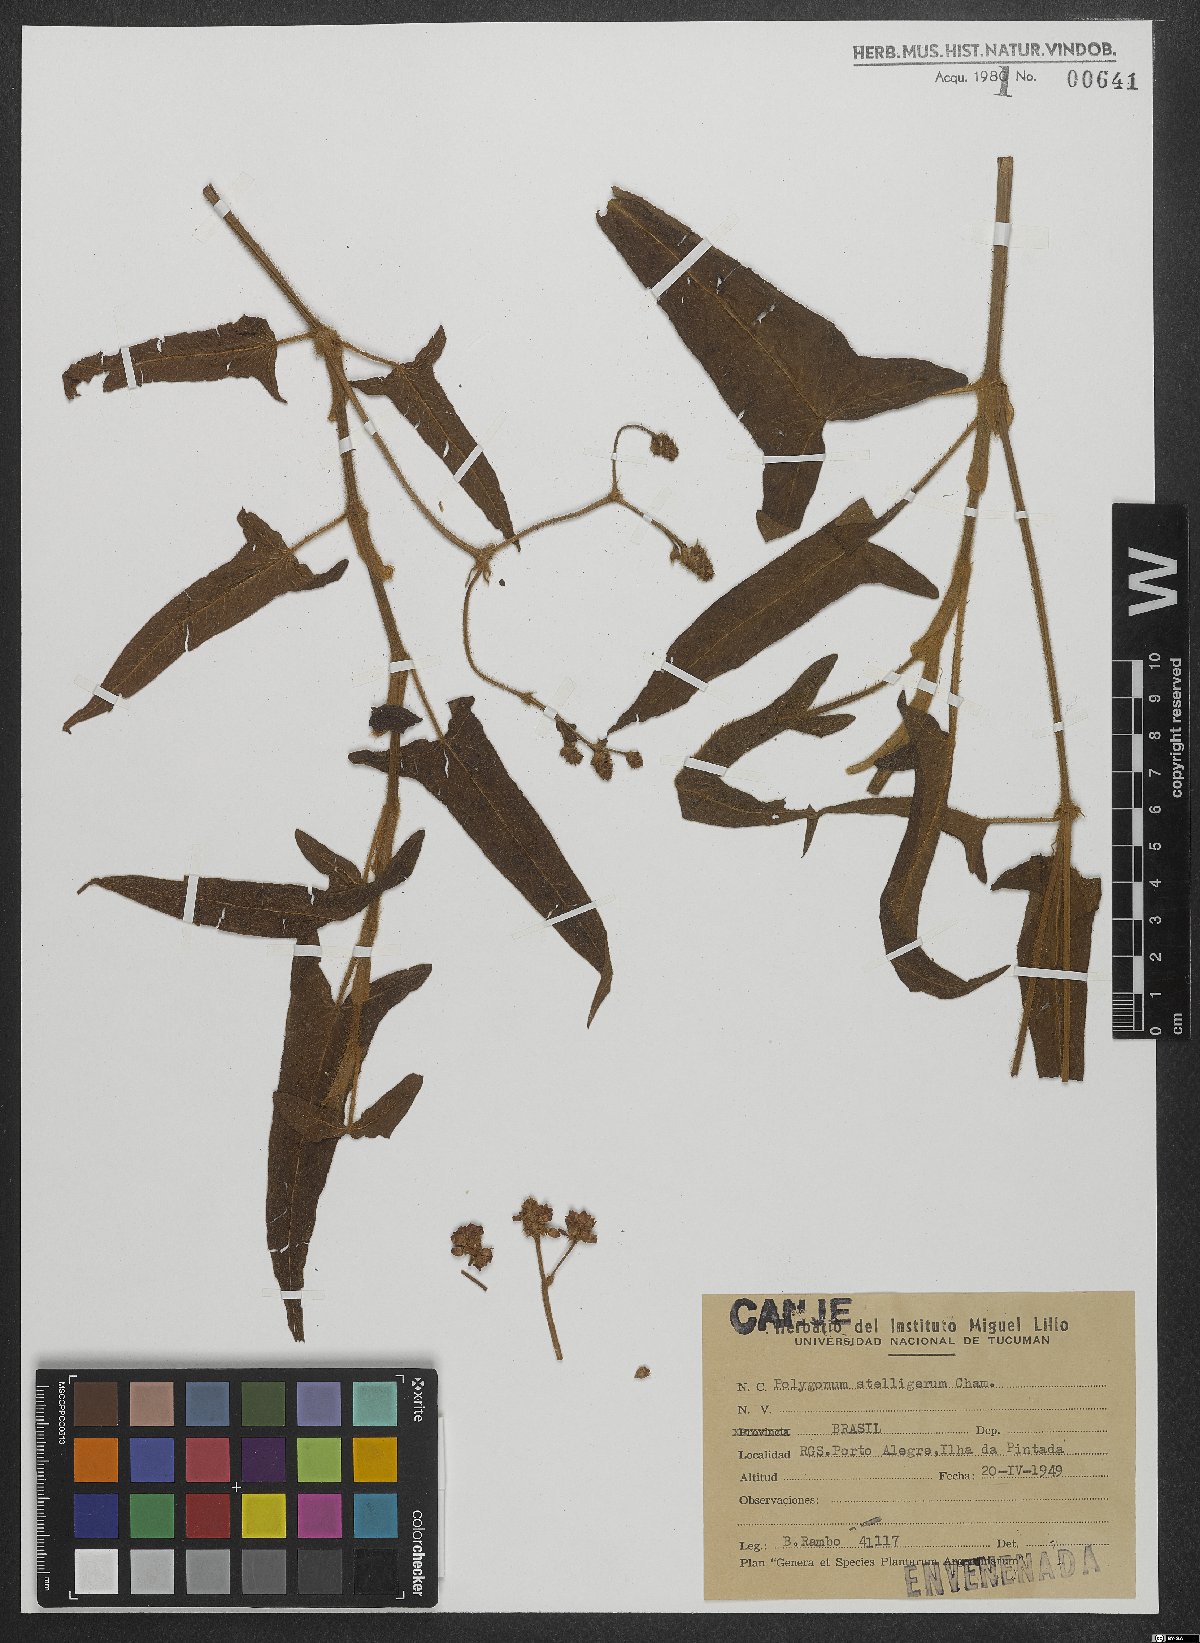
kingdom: Plantae
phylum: Tracheophyta
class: Magnoliopsida
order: Caryophyllales
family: Polygonaceae
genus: Persicaria
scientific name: Persicaria stelligera
